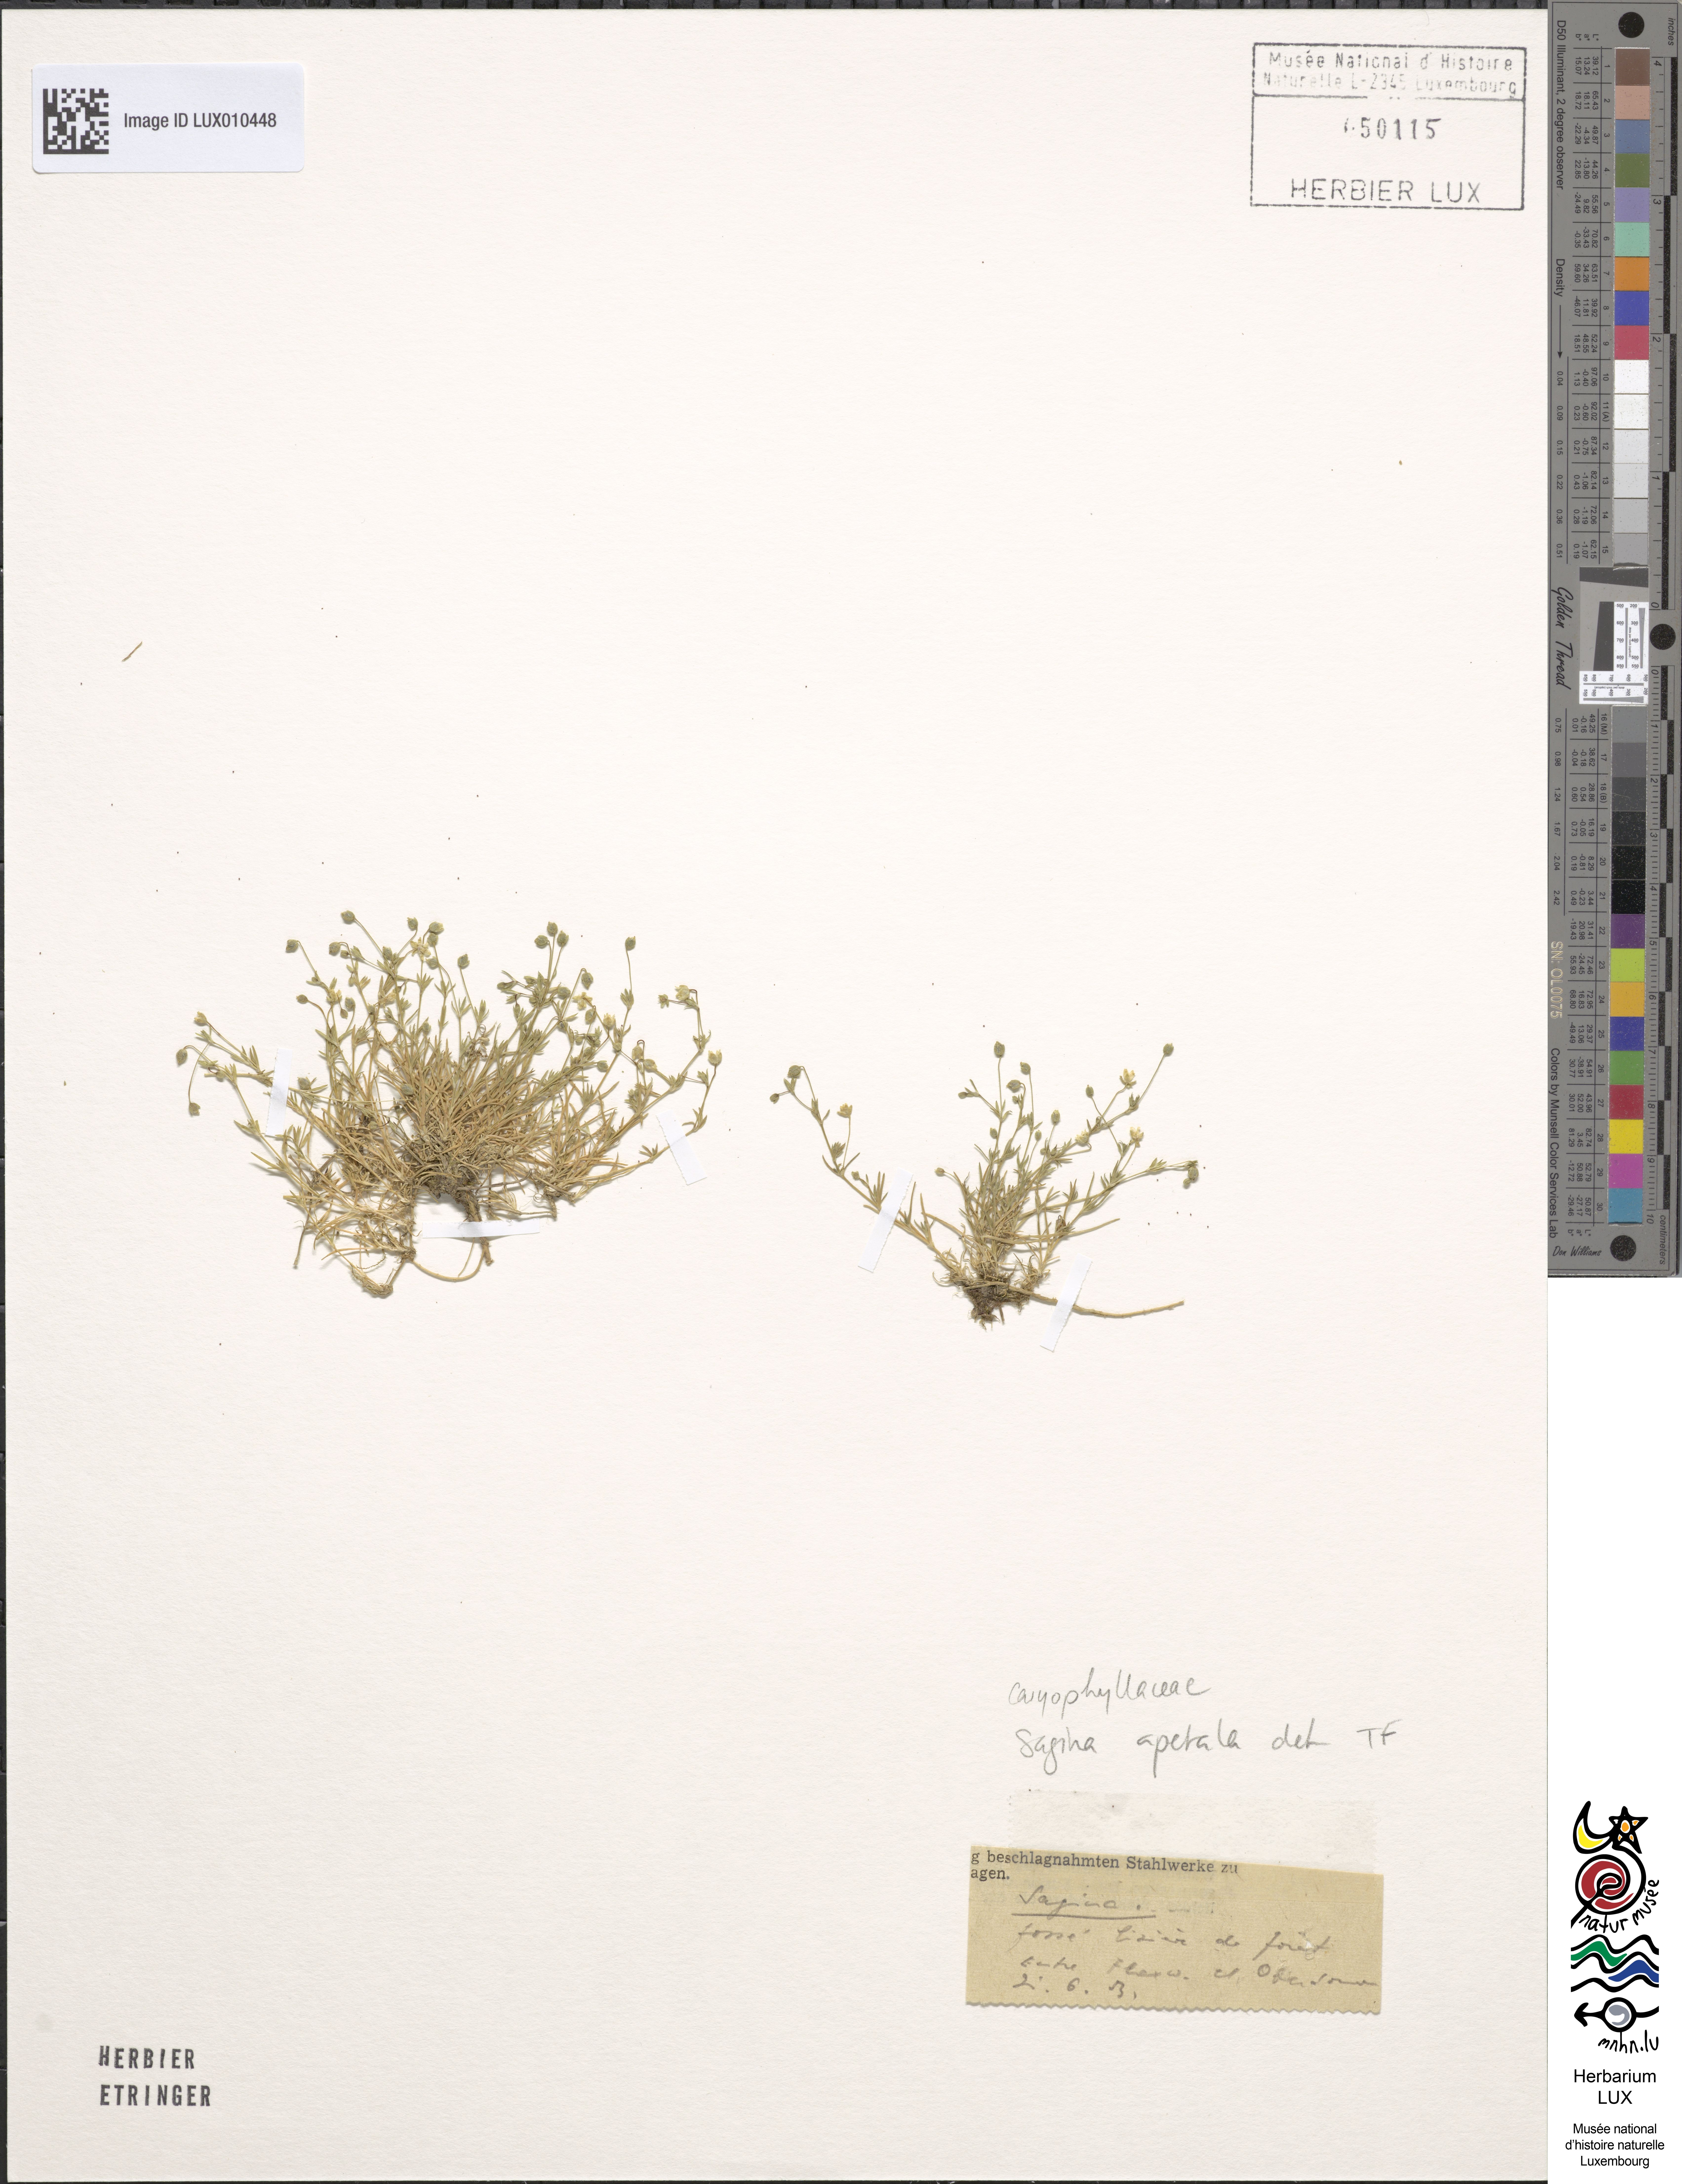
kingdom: Plantae
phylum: Tracheophyta
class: Magnoliopsida
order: Caryophyllales
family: Caryophyllaceae
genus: Sagina
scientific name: Sagina apetala
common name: Annual pearlwort
